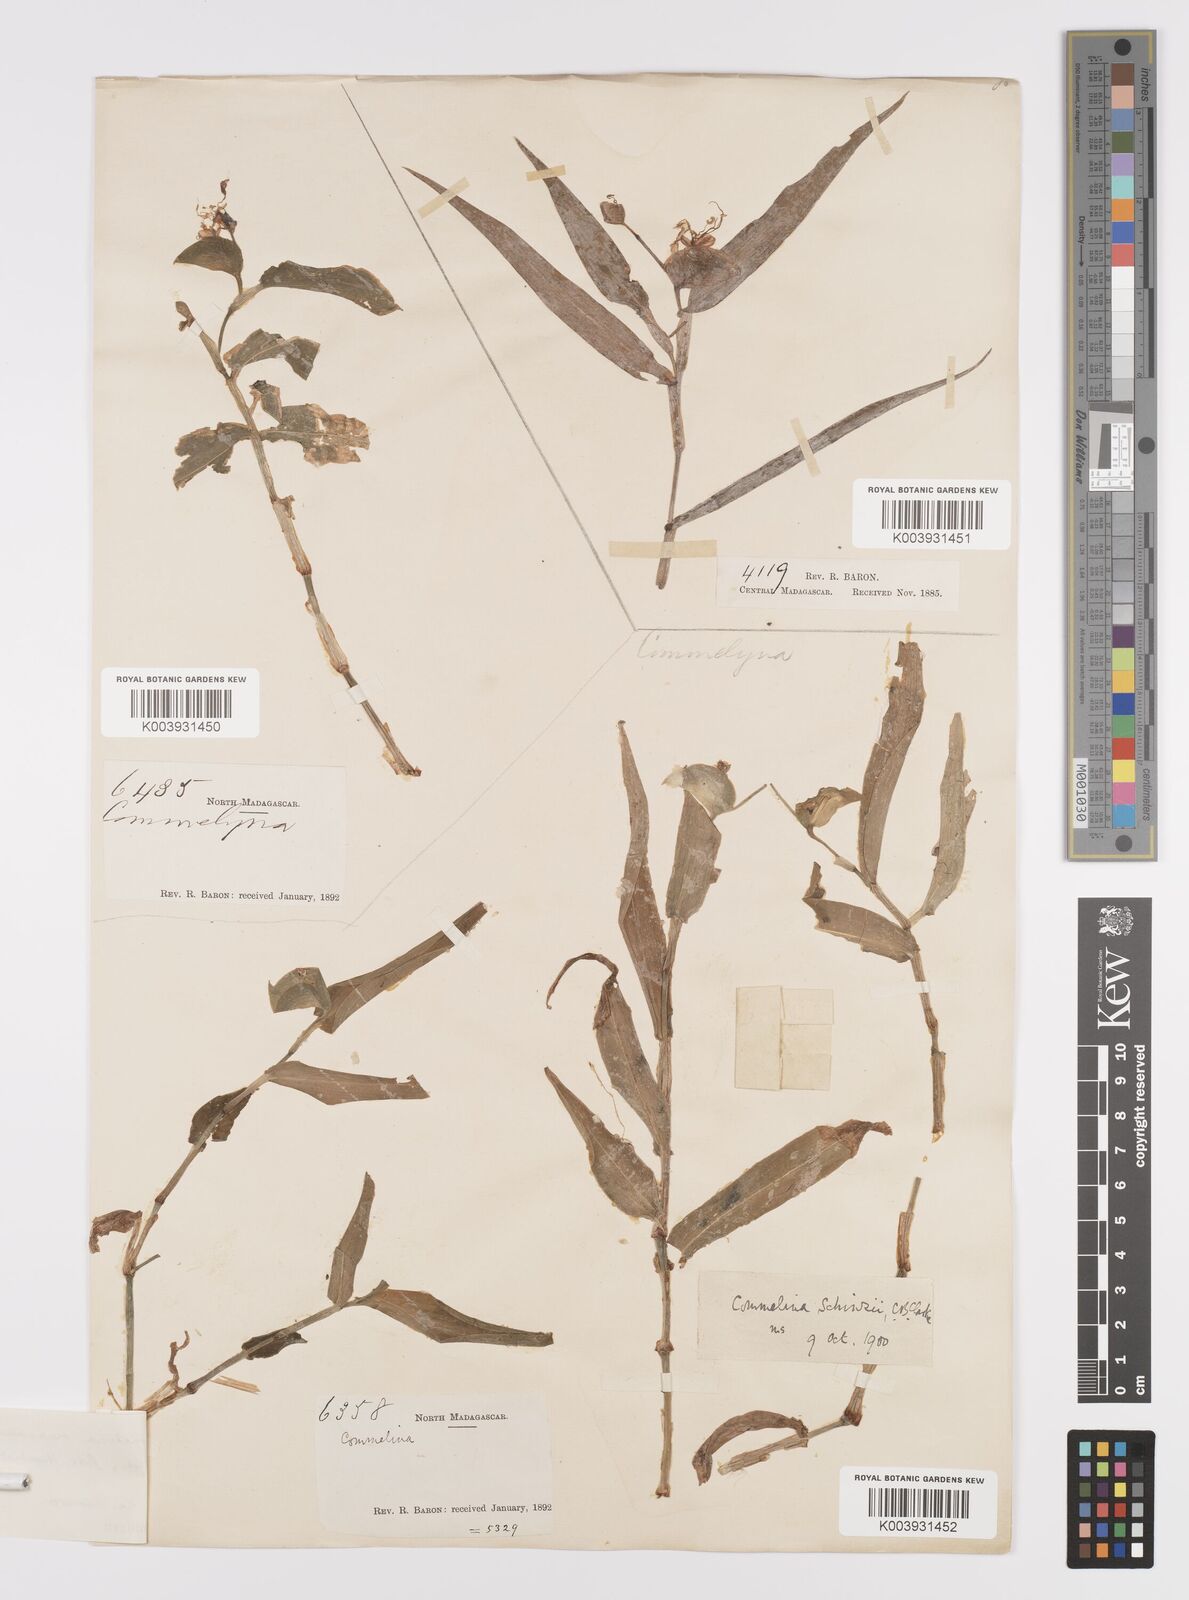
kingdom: Plantae
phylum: Tracheophyta
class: Liliopsida
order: Commelinales
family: Commelinaceae
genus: Commelina
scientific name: Commelina mascarenica
